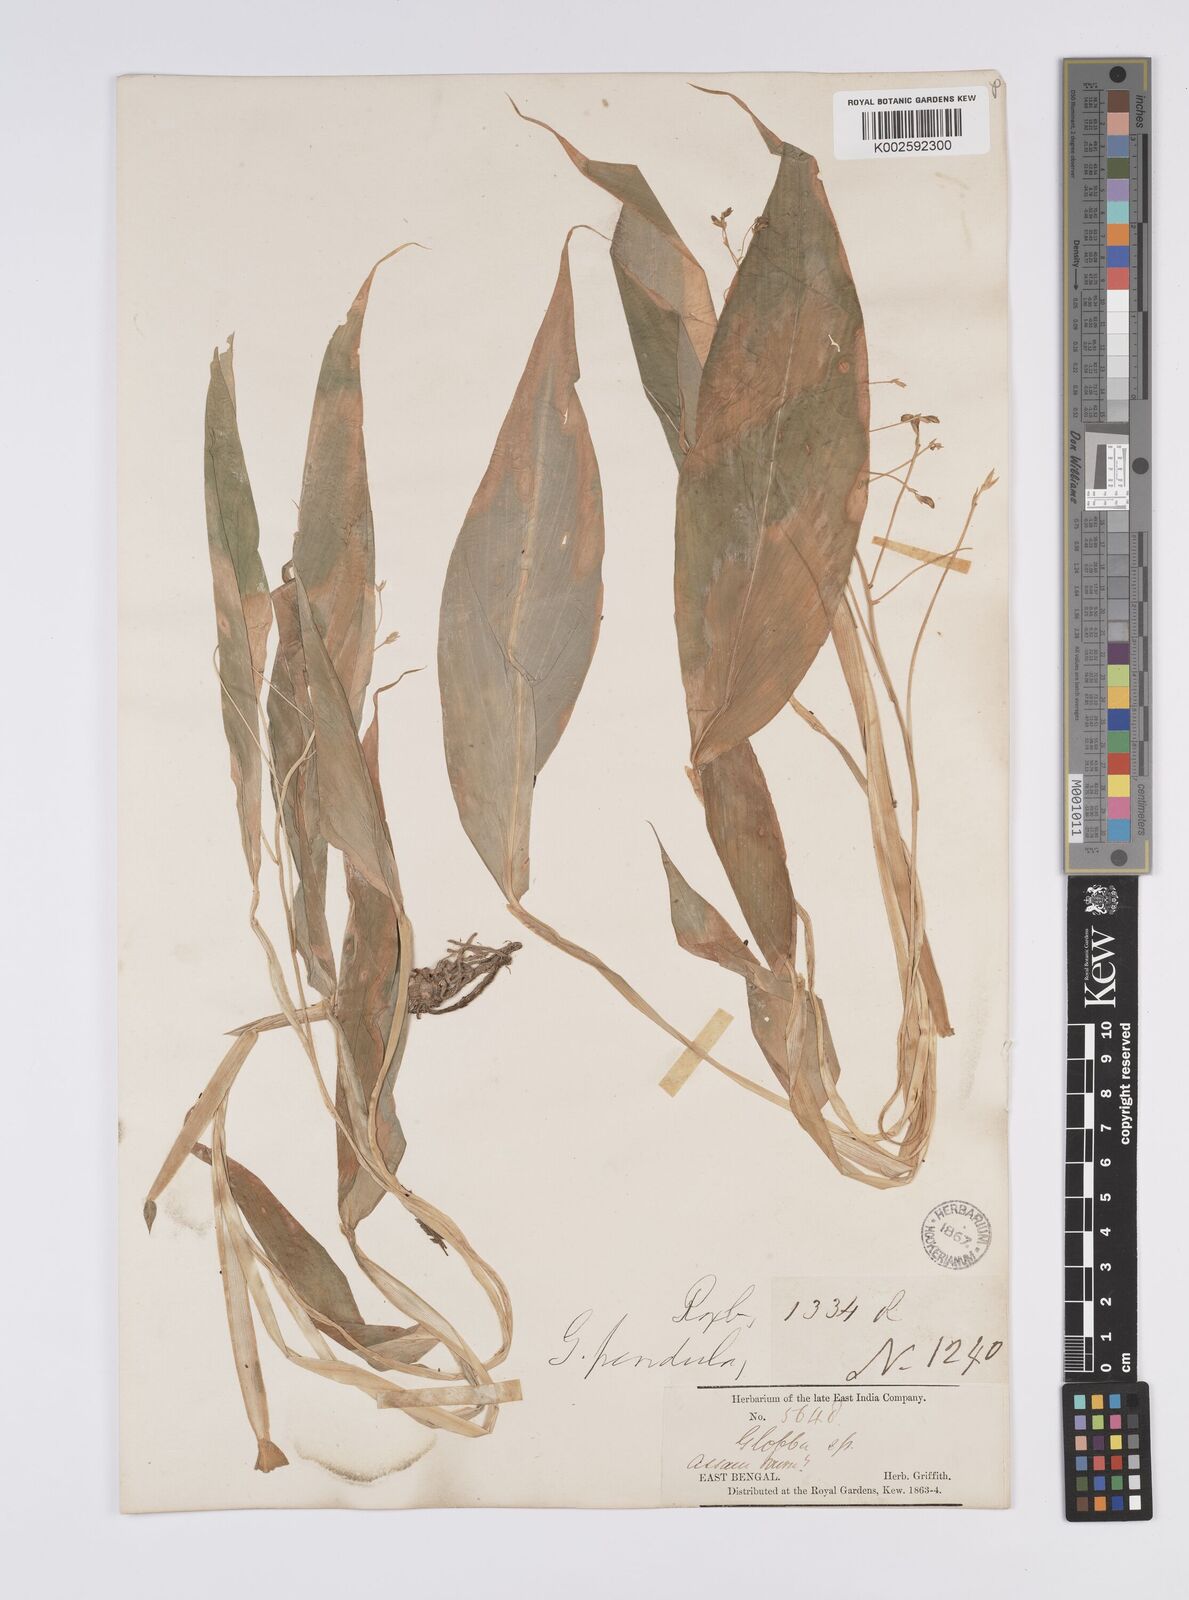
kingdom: Plantae
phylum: Tracheophyta
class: Liliopsida
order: Zingiberales
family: Zingiberaceae
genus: Globba
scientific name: Globba pendula
